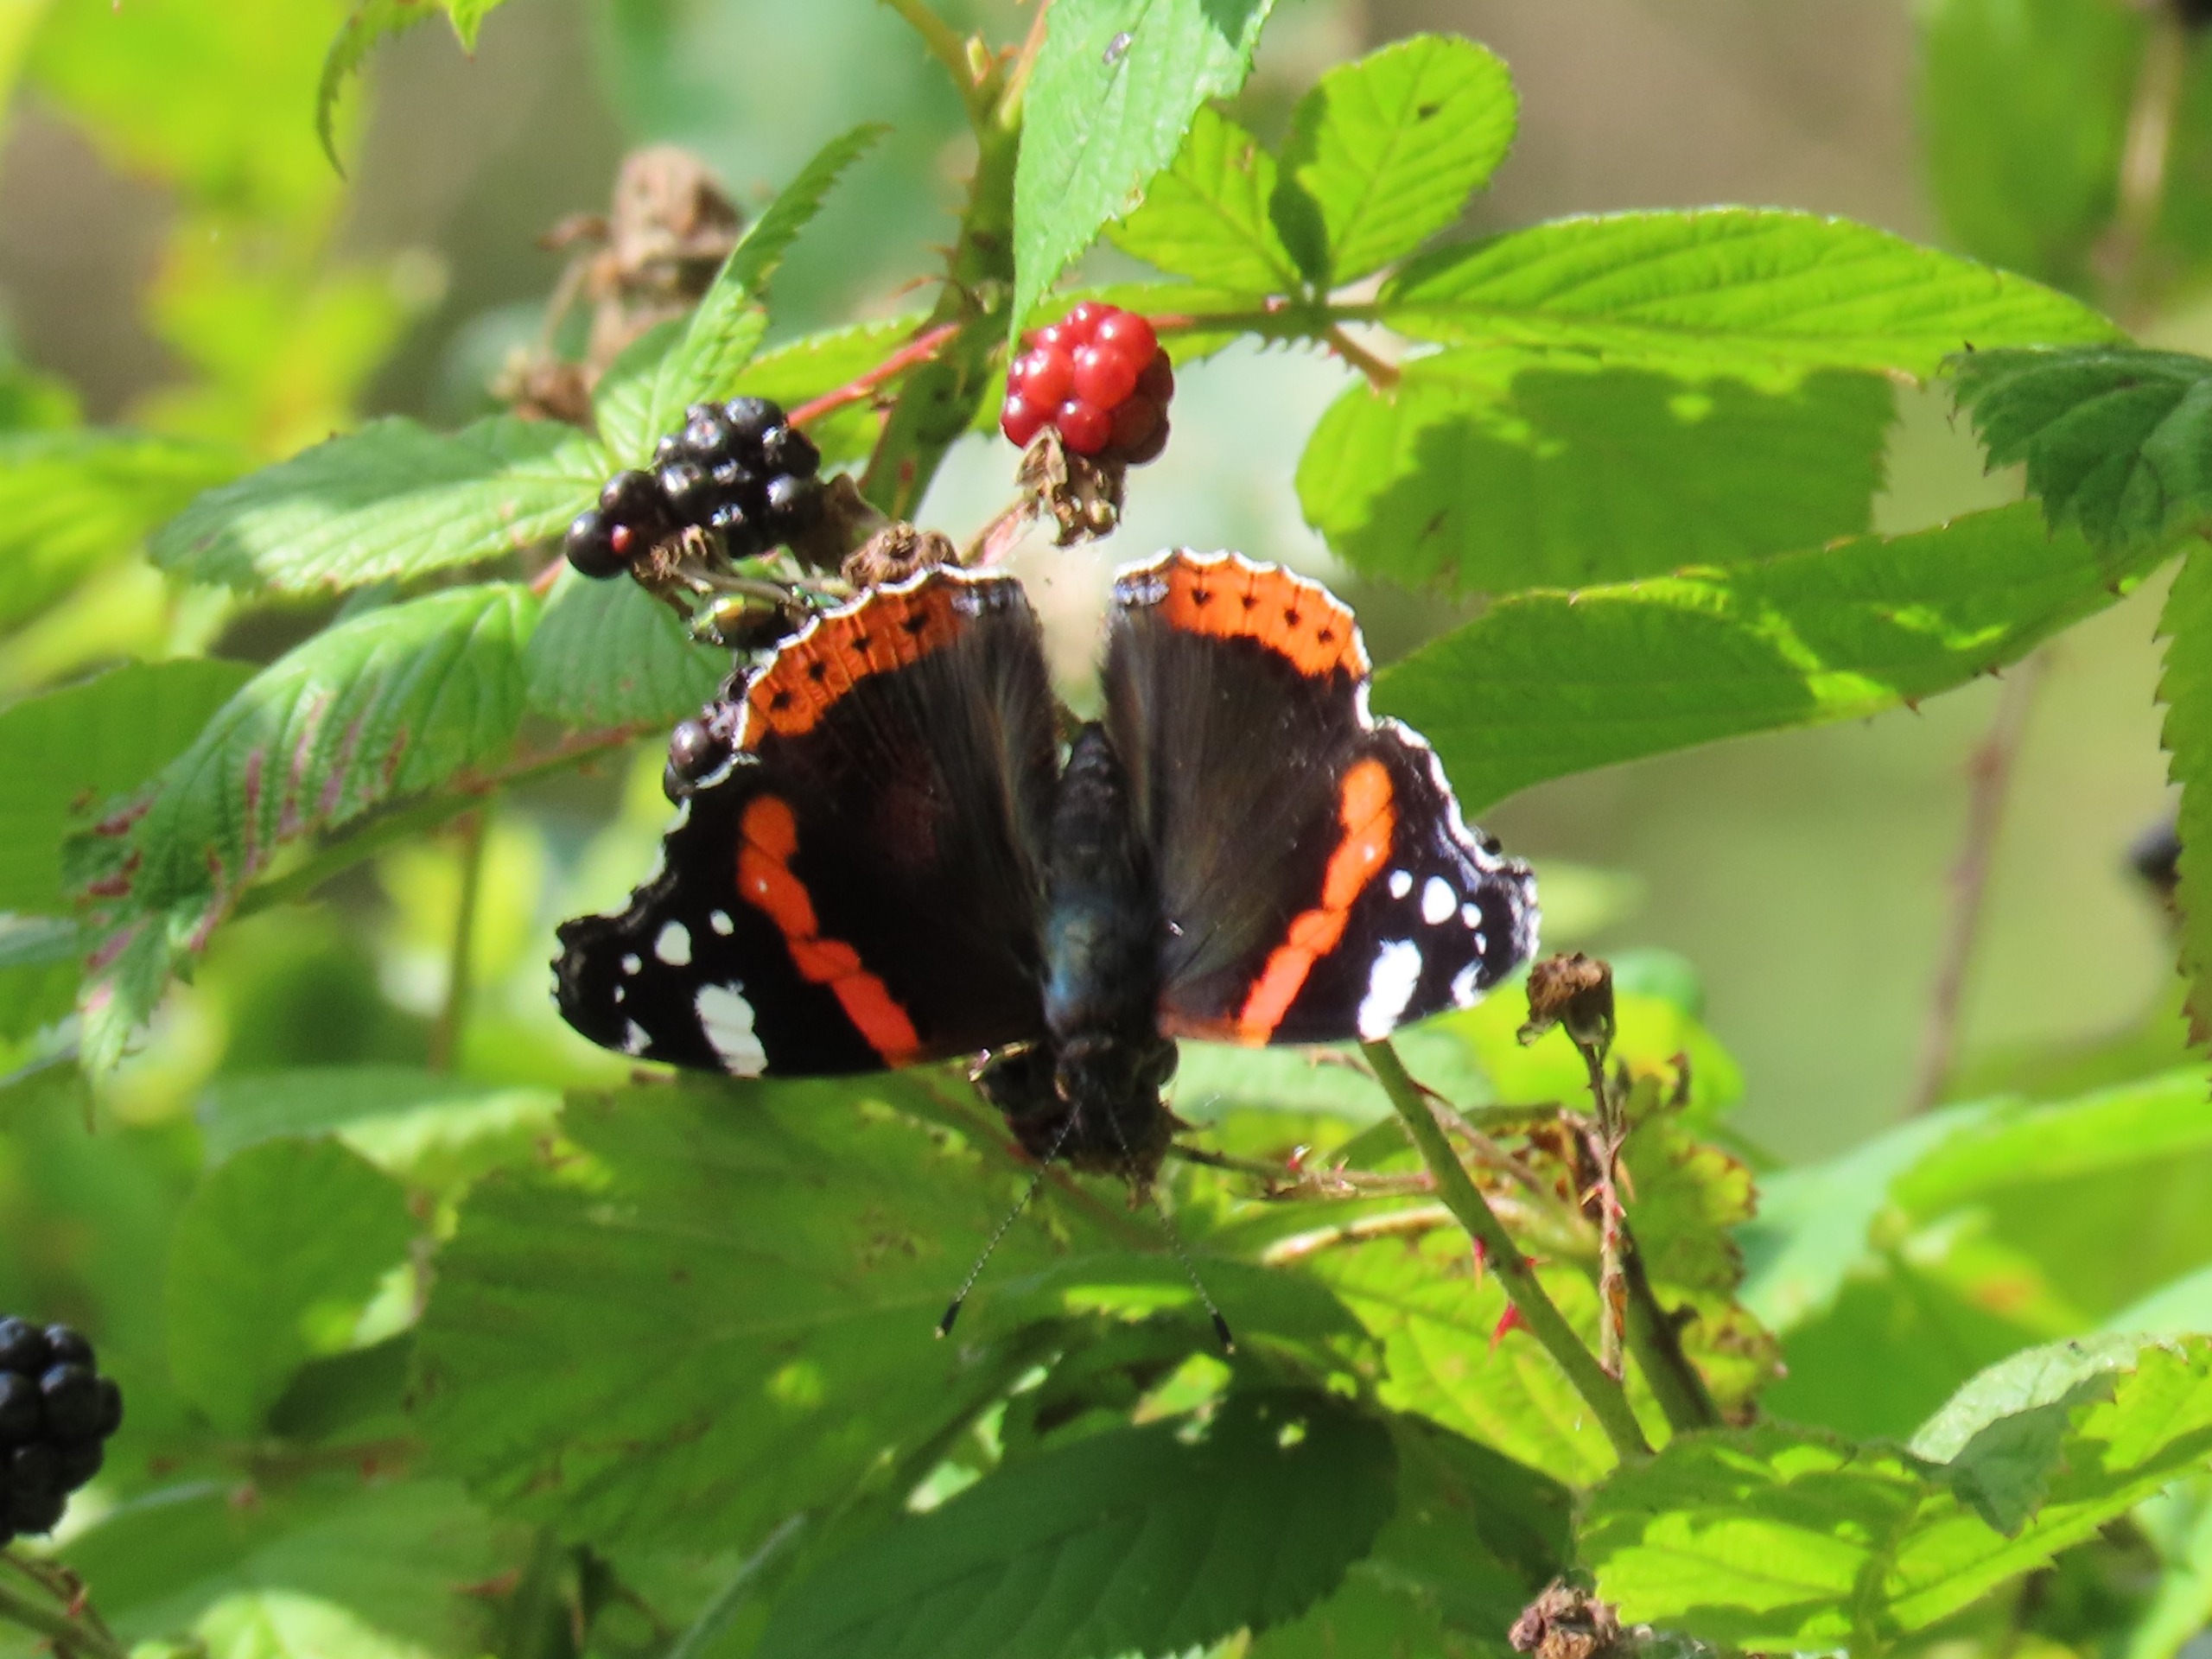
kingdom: Animalia
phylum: Arthropoda
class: Insecta
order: Lepidoptera
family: Nymphalidae
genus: Vanessa
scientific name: Vanessa atalanta
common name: Admiral
